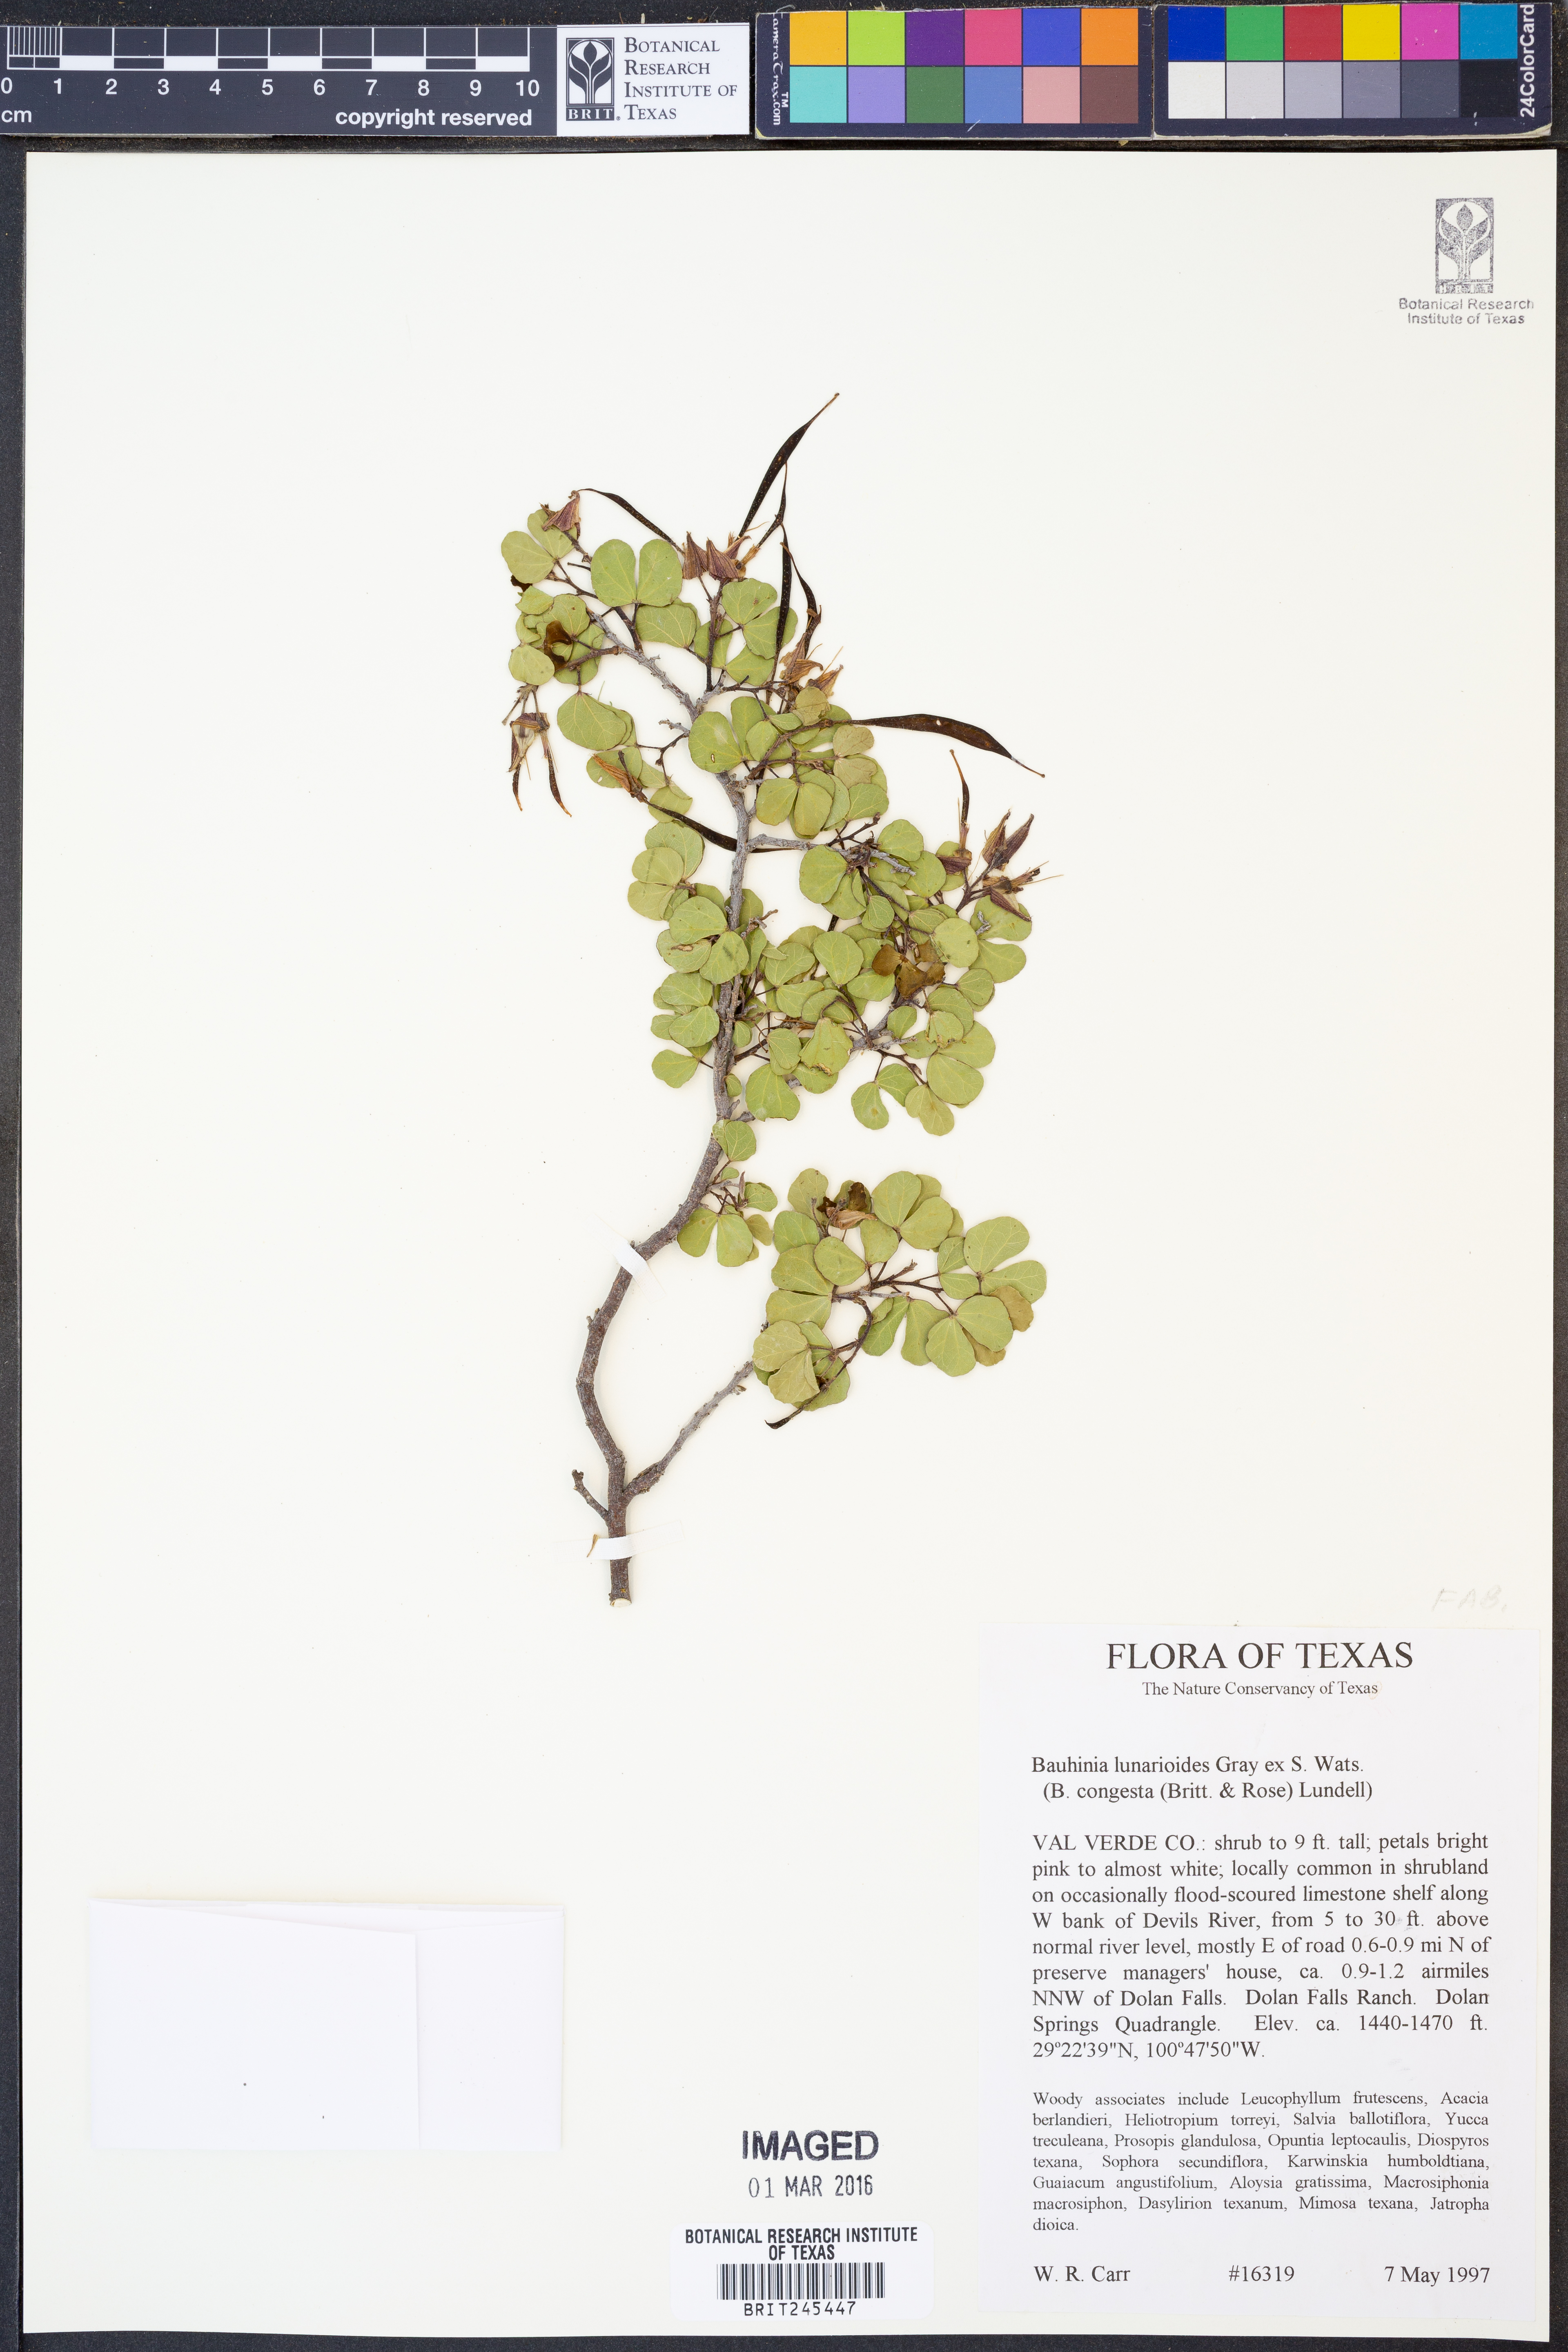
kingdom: Plantae
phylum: Tracheophyta
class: Magnoliopsida
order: Fabales
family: Fabaceae
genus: Bauhinia
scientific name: Bauhinia lunarioides
